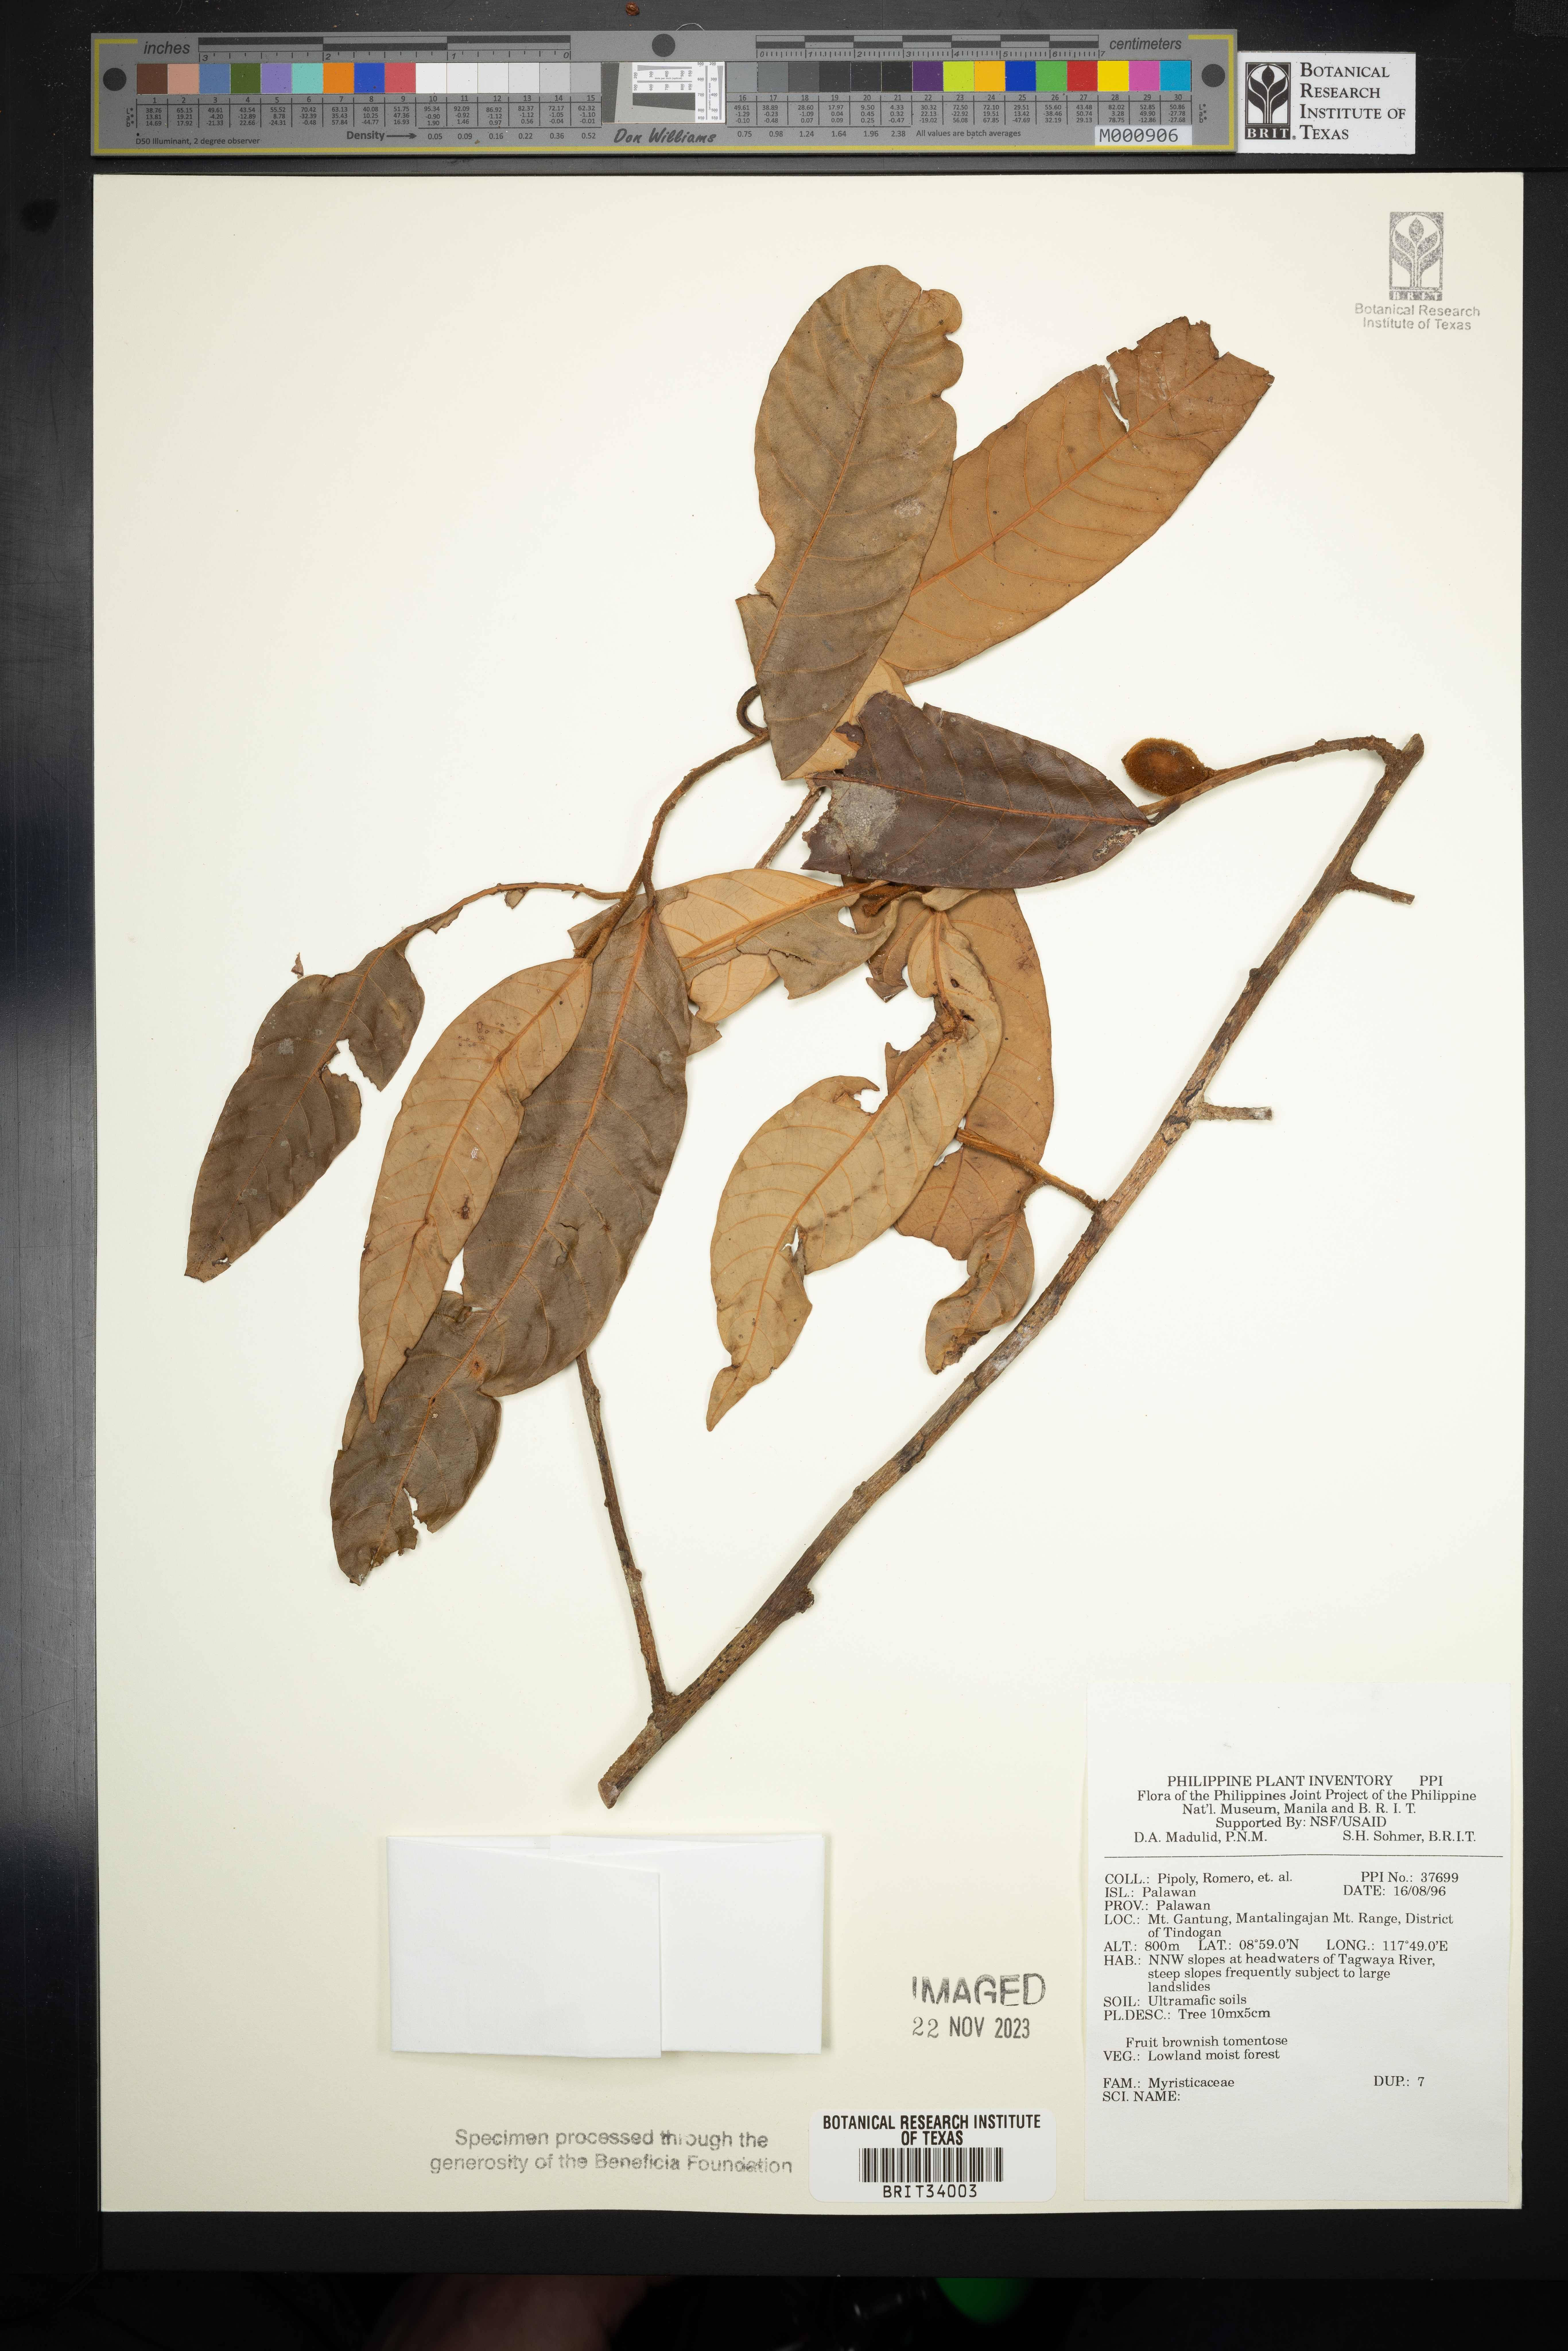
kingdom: Plantae
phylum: Tracheophyta
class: Magnoliopsida
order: Magnoliales
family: Myristicaceae
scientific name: Myristicaceae
